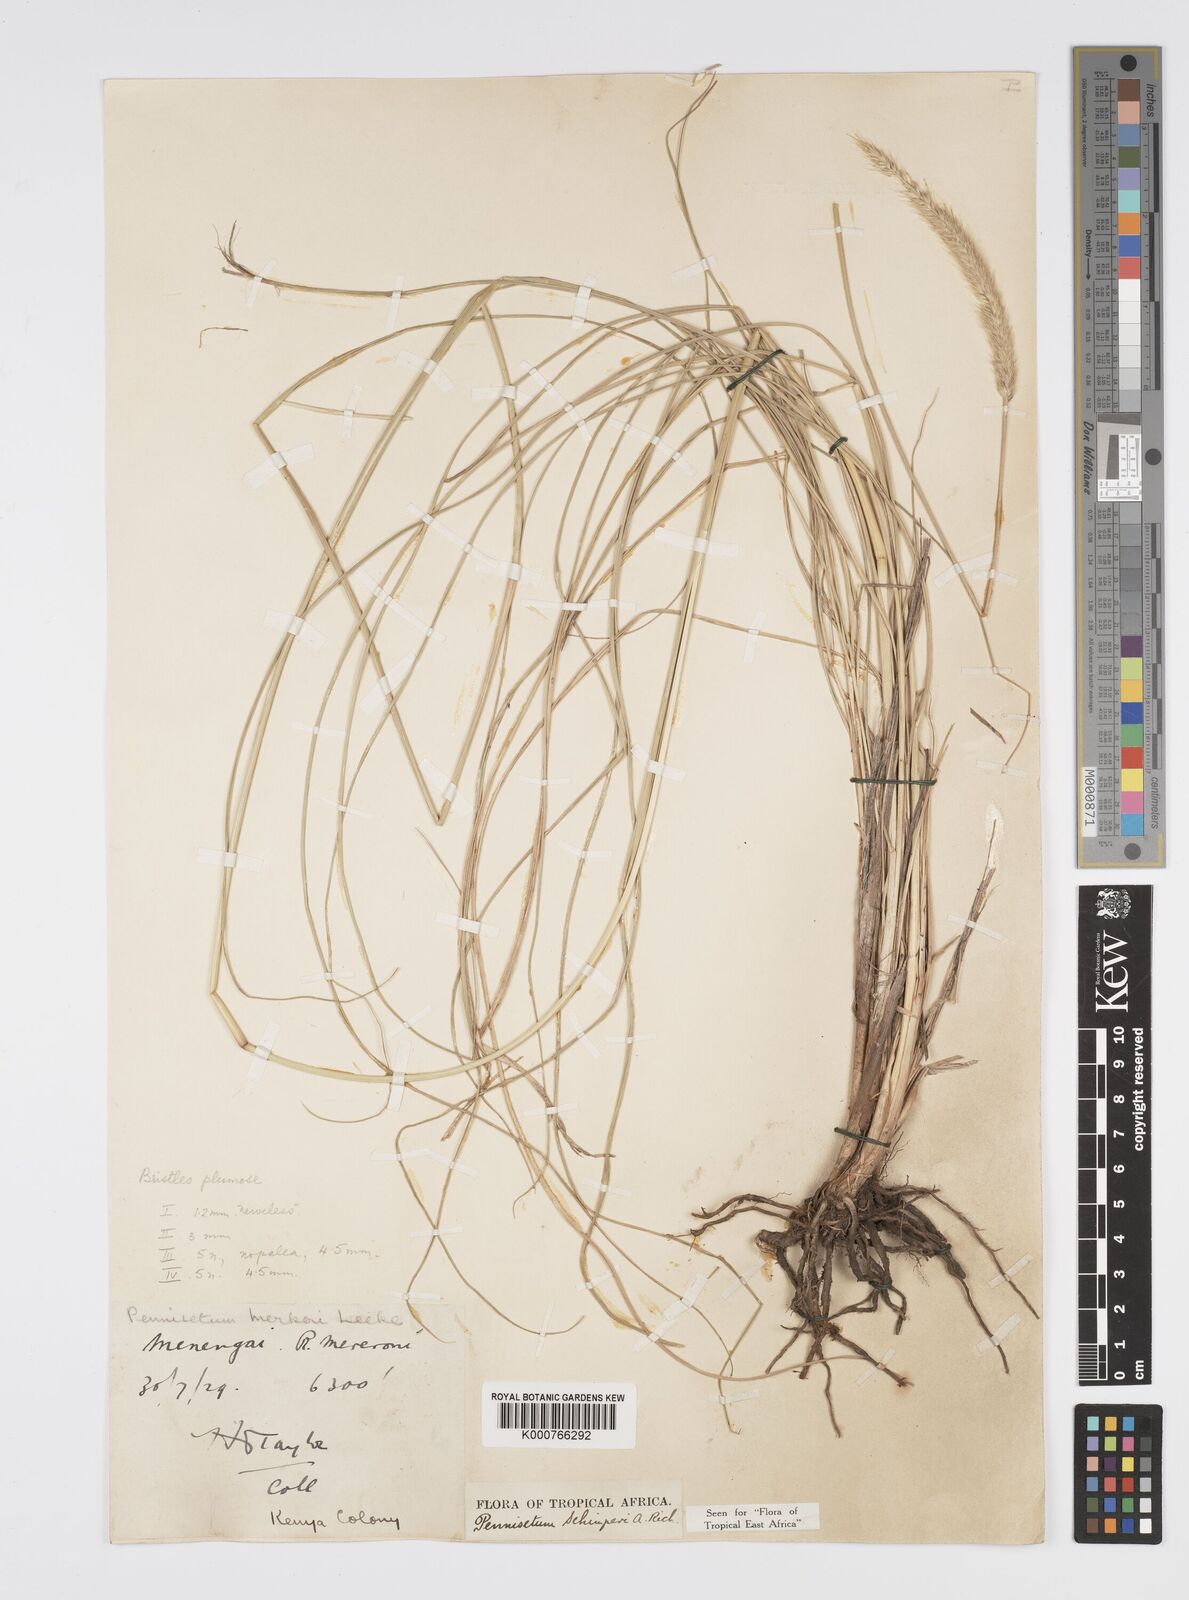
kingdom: Plantae
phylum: Tracheophyta
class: Liliopsida
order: Poales
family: Poaceae
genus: Cenchrus
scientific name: Cenchrus sphacelatus
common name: Bulgras
